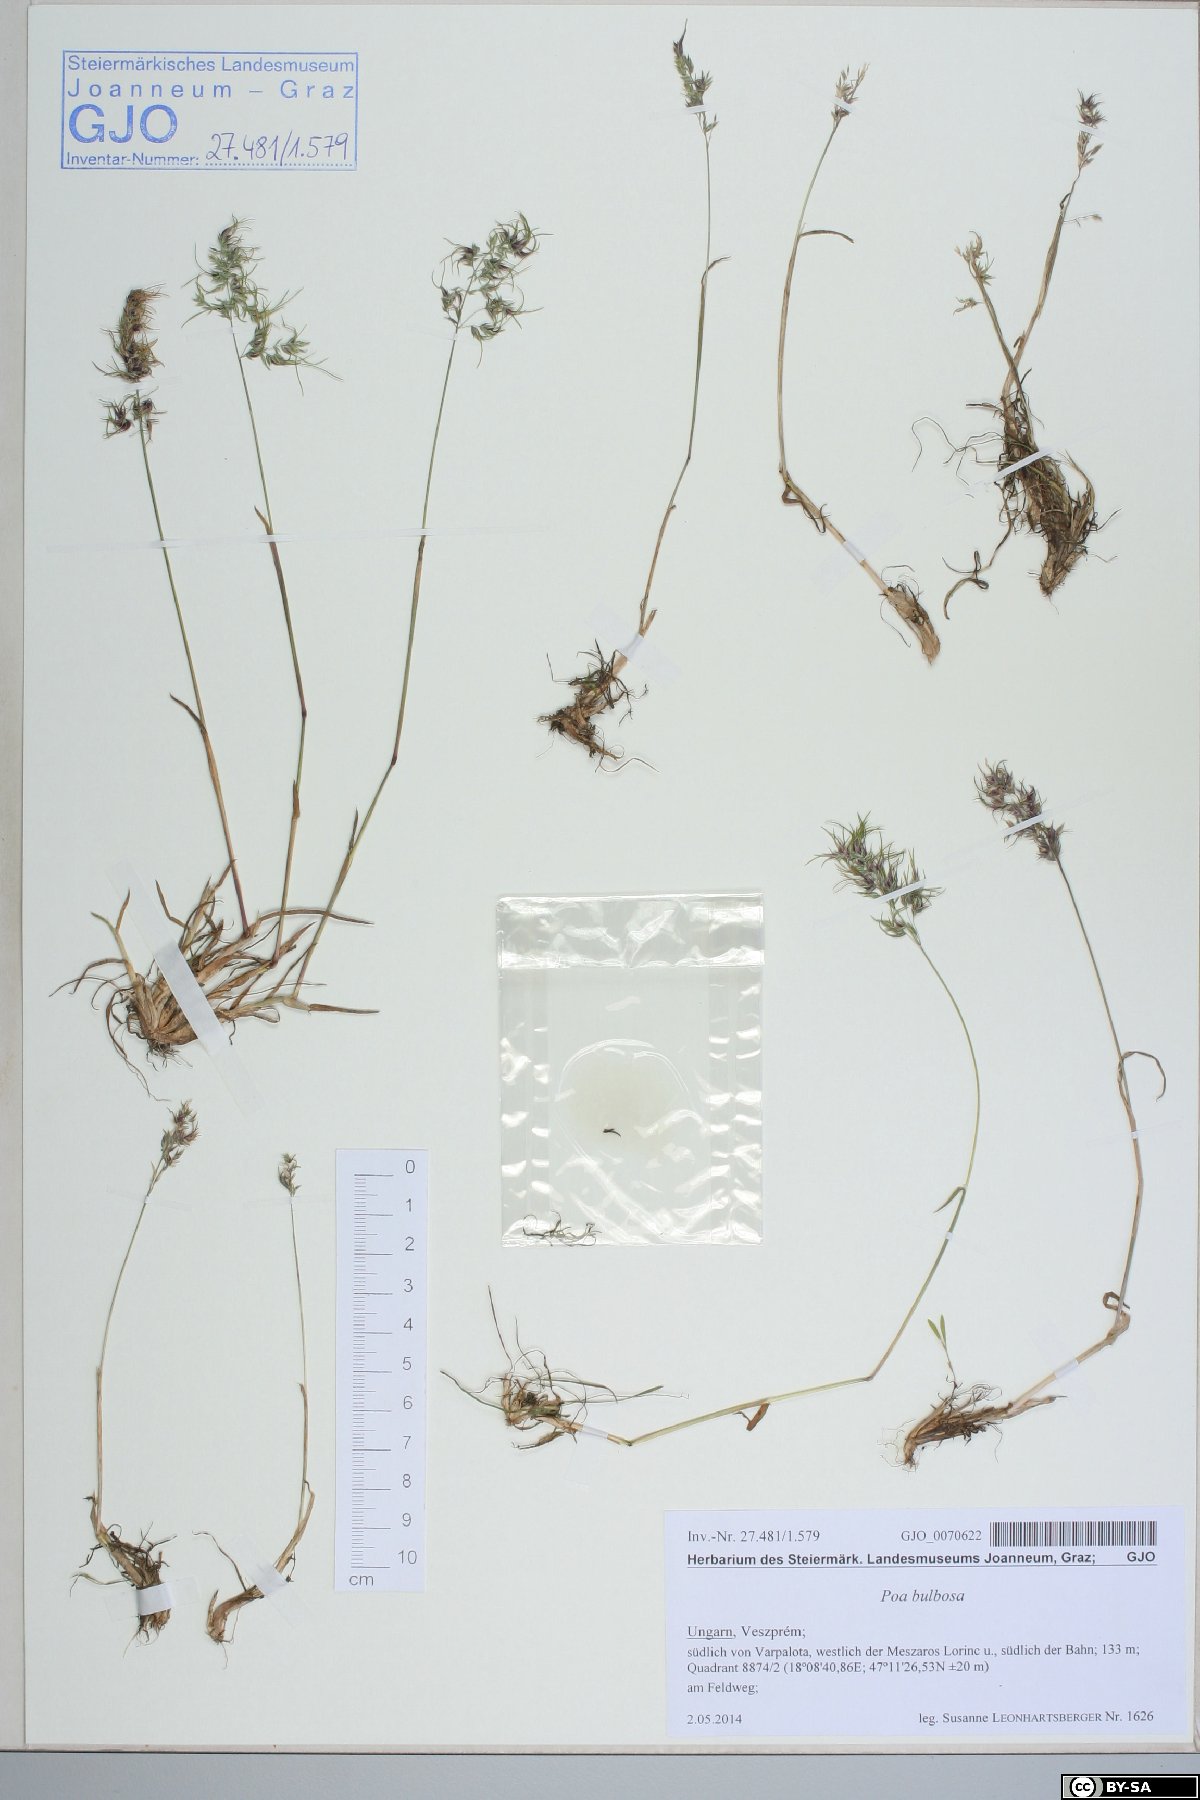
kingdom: Plantae
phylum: Tracheophyta
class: Liliopsida
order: Poales
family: Poaceae
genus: Poa
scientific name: Poa bulbosa
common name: Bulbous bluegrass
